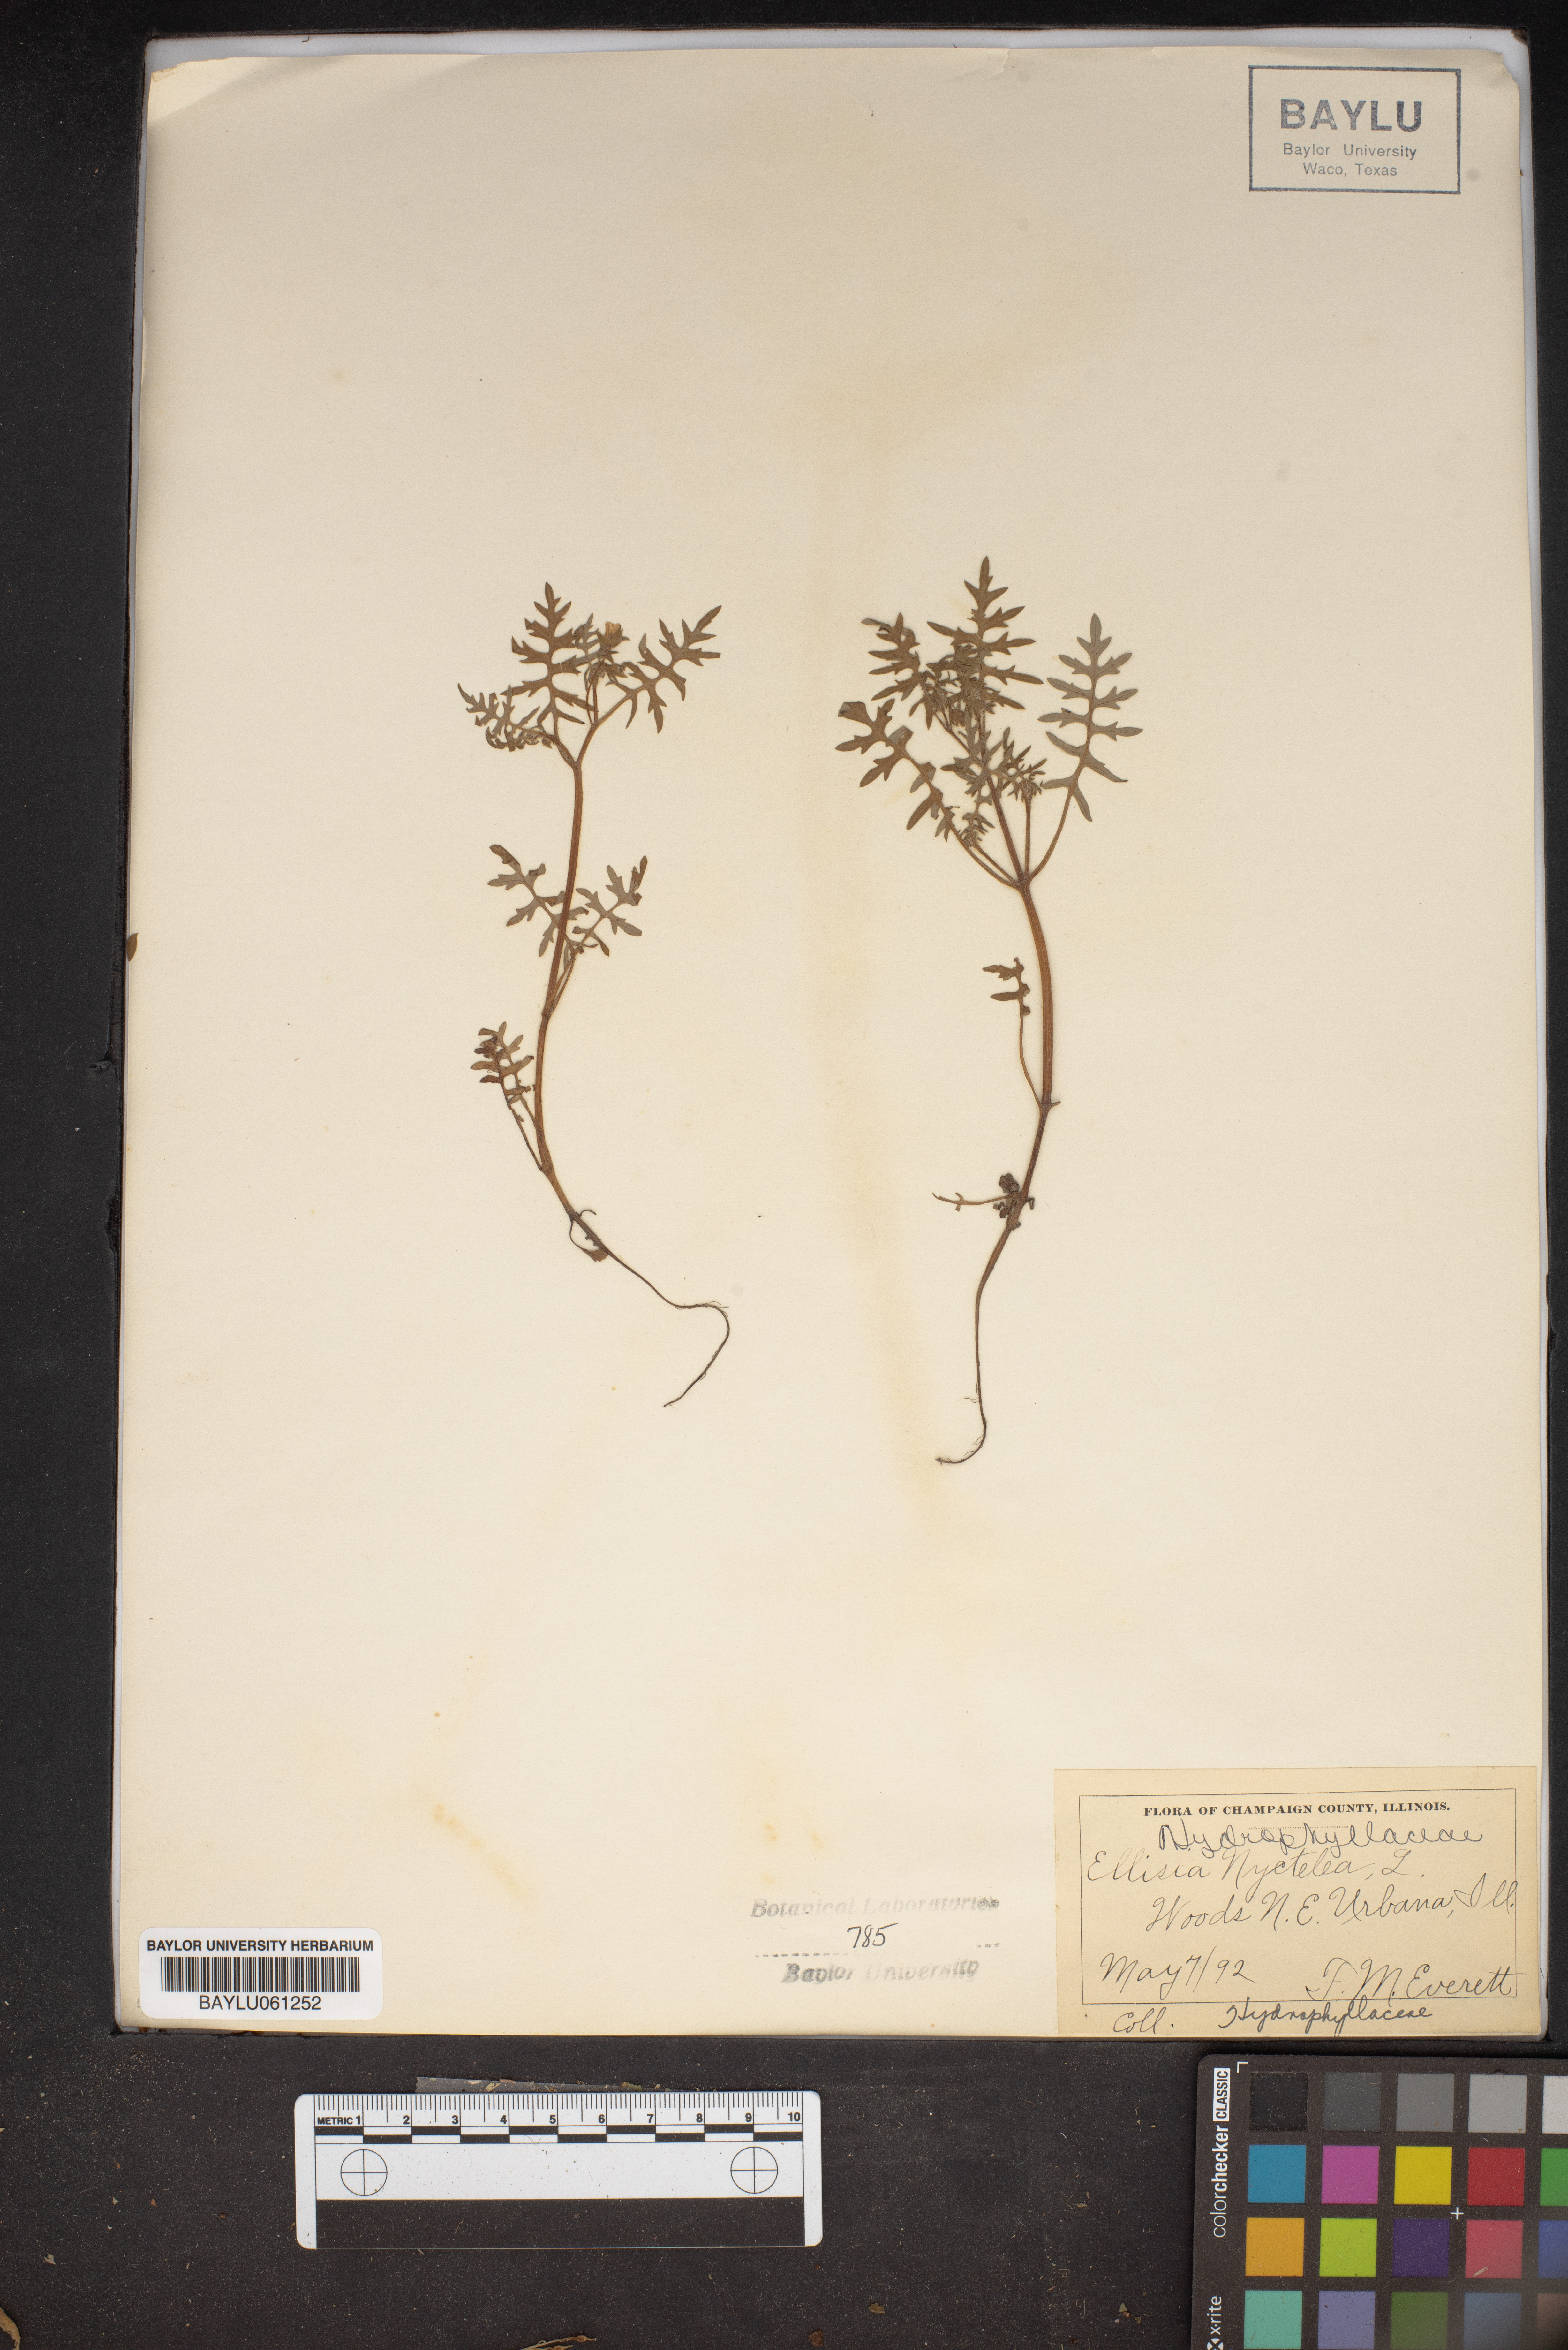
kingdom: Plantae
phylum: Tracheophyta
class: Magnoliopsida
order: Boraginales
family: Hydrophyllaceae
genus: Ellisia
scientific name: Ellisia nyctelea
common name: Aunt lucy
